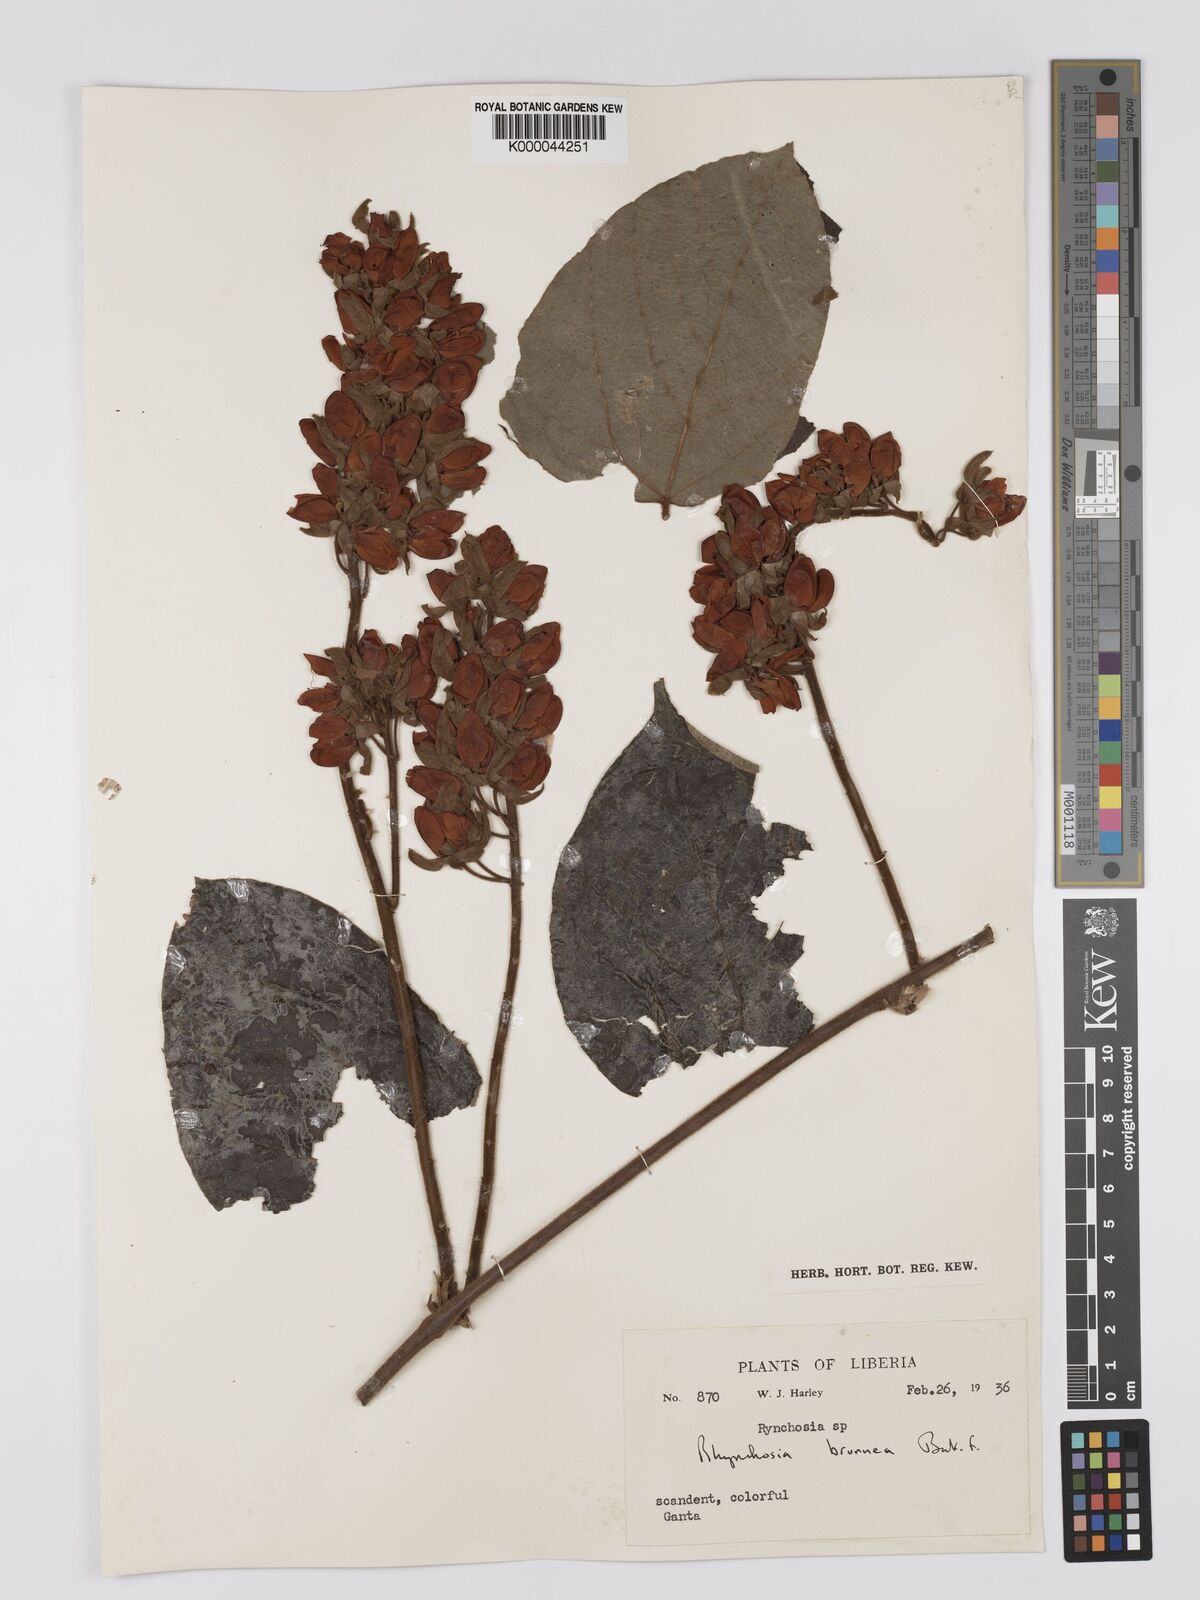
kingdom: Plantae
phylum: Tracheophyta
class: Magnoliopsida
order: Fabales
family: Fabaceae
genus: Rhynchosia
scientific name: Rhynchosia brunnea
